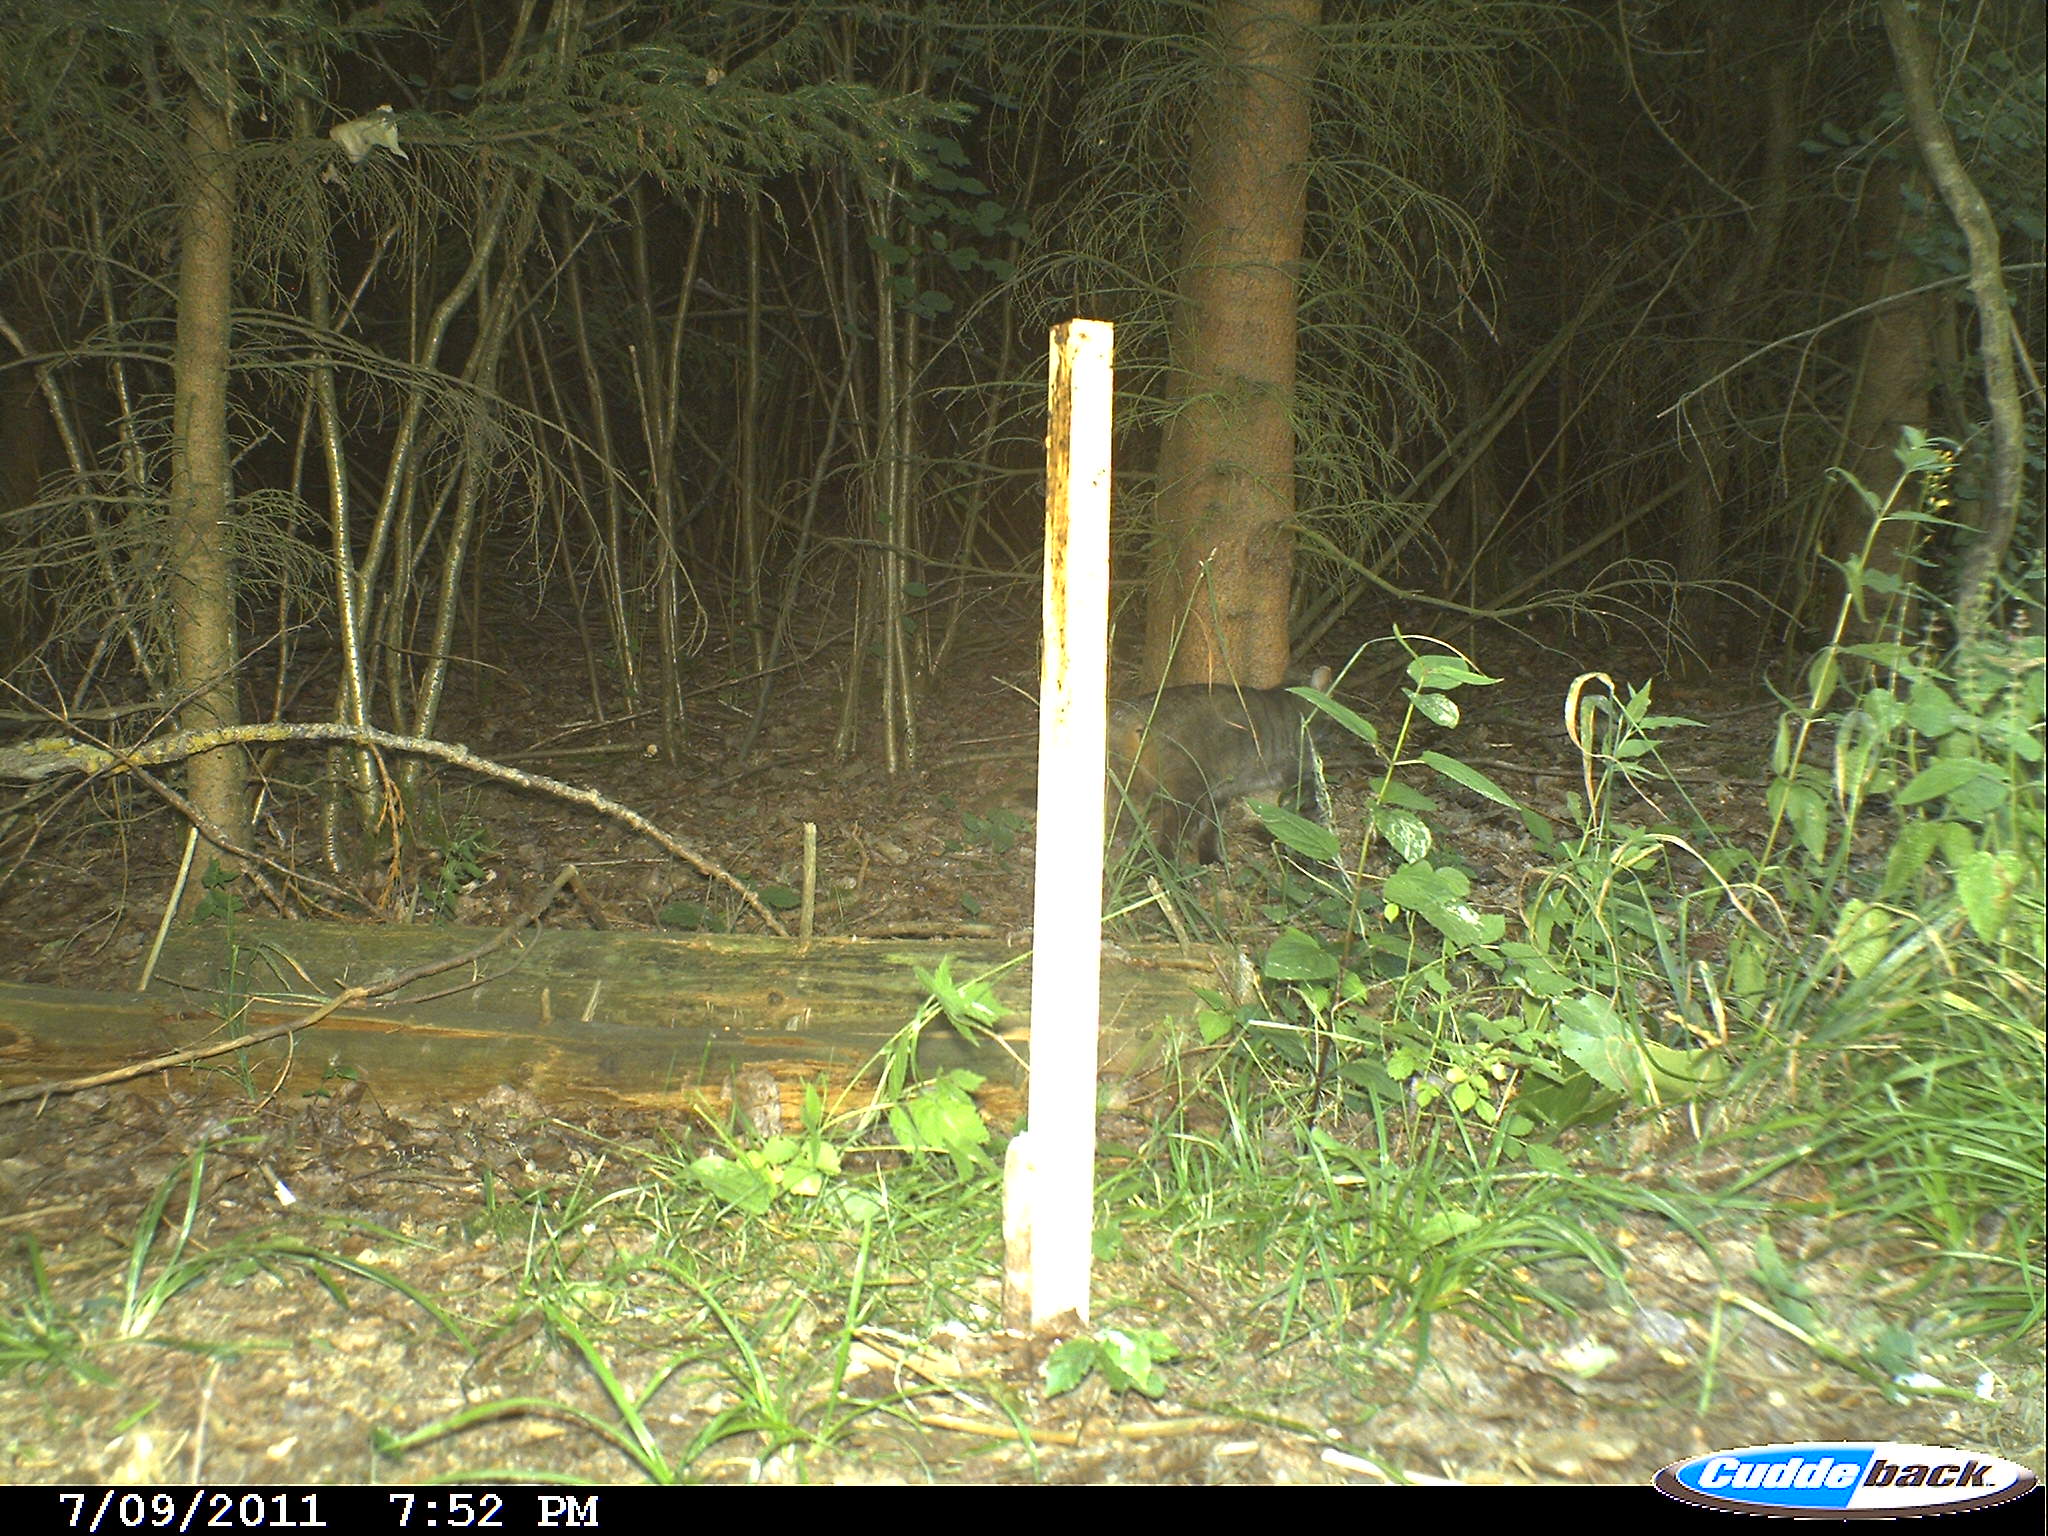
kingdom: Animalia
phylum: Chordata
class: Mammalia
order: Carnivora
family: Felidae
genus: Felis
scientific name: Felis silvestris
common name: Wildcat
